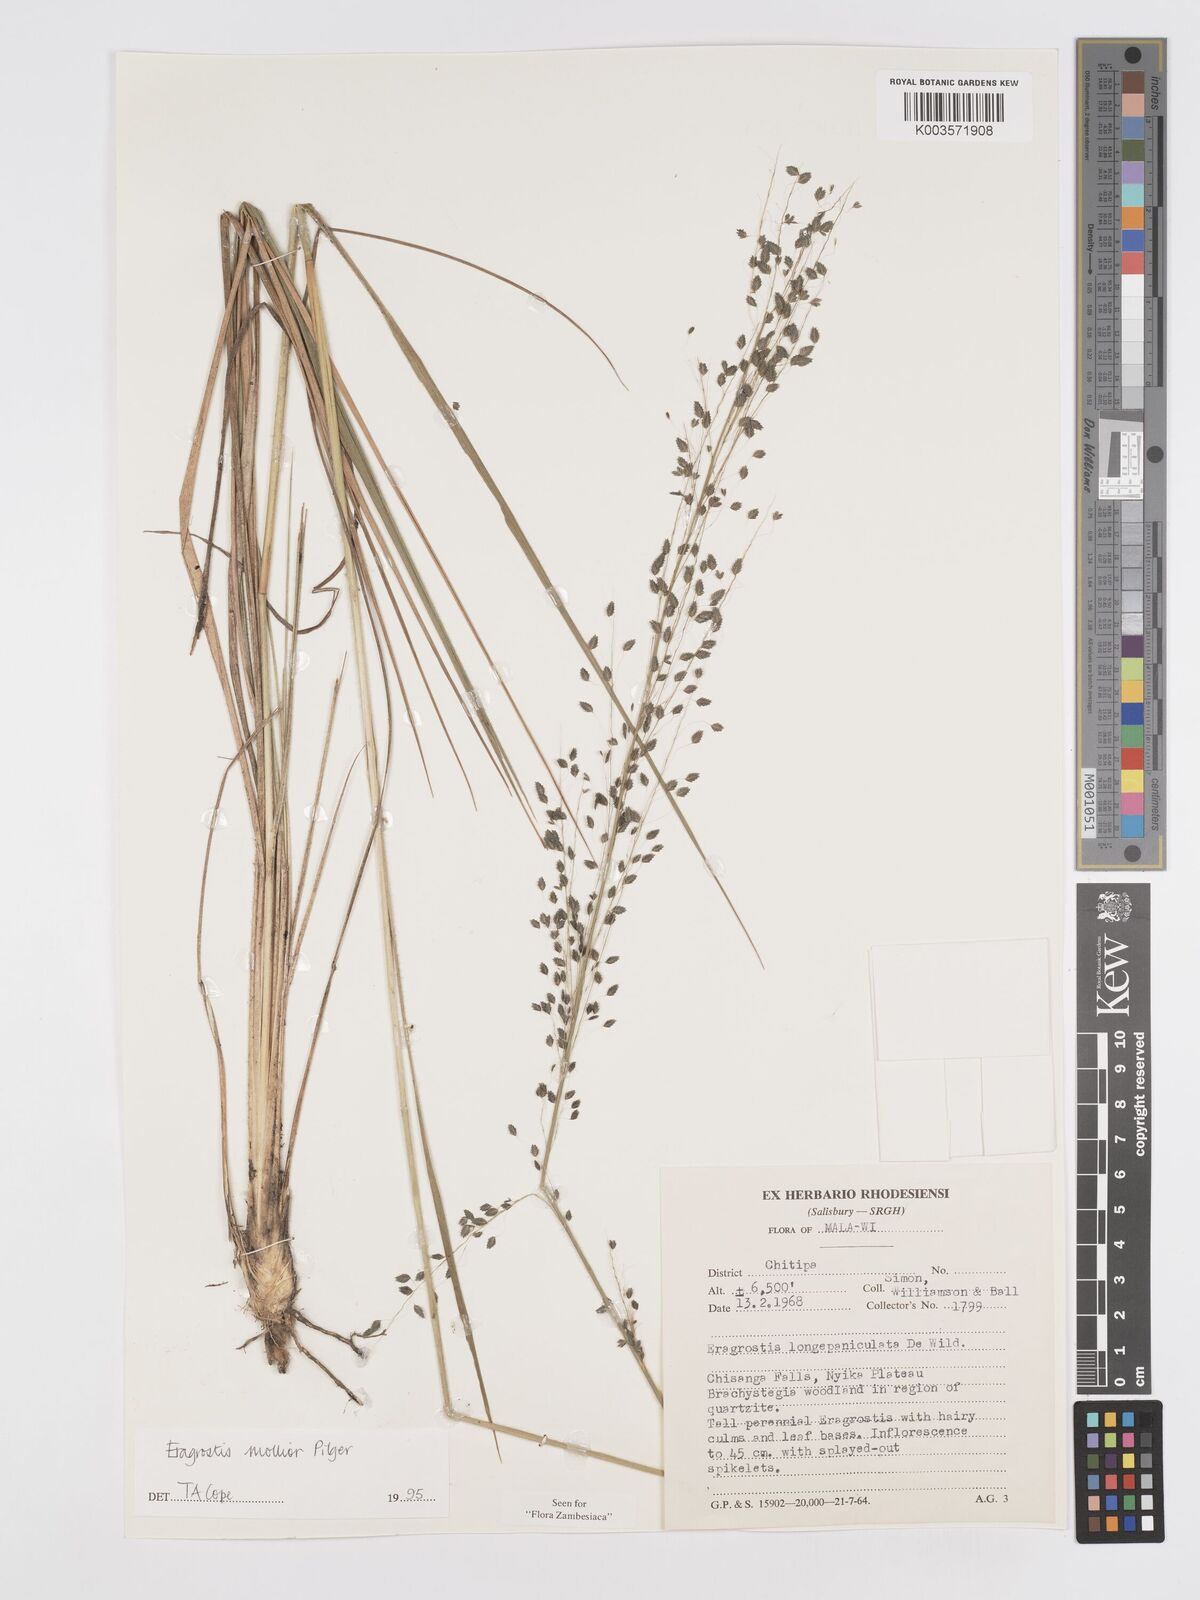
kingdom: Plantae
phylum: Tracheophyta
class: Liliopsida
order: Poales
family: Poaceae
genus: Eragrostis
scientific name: Eragrostis mollior
